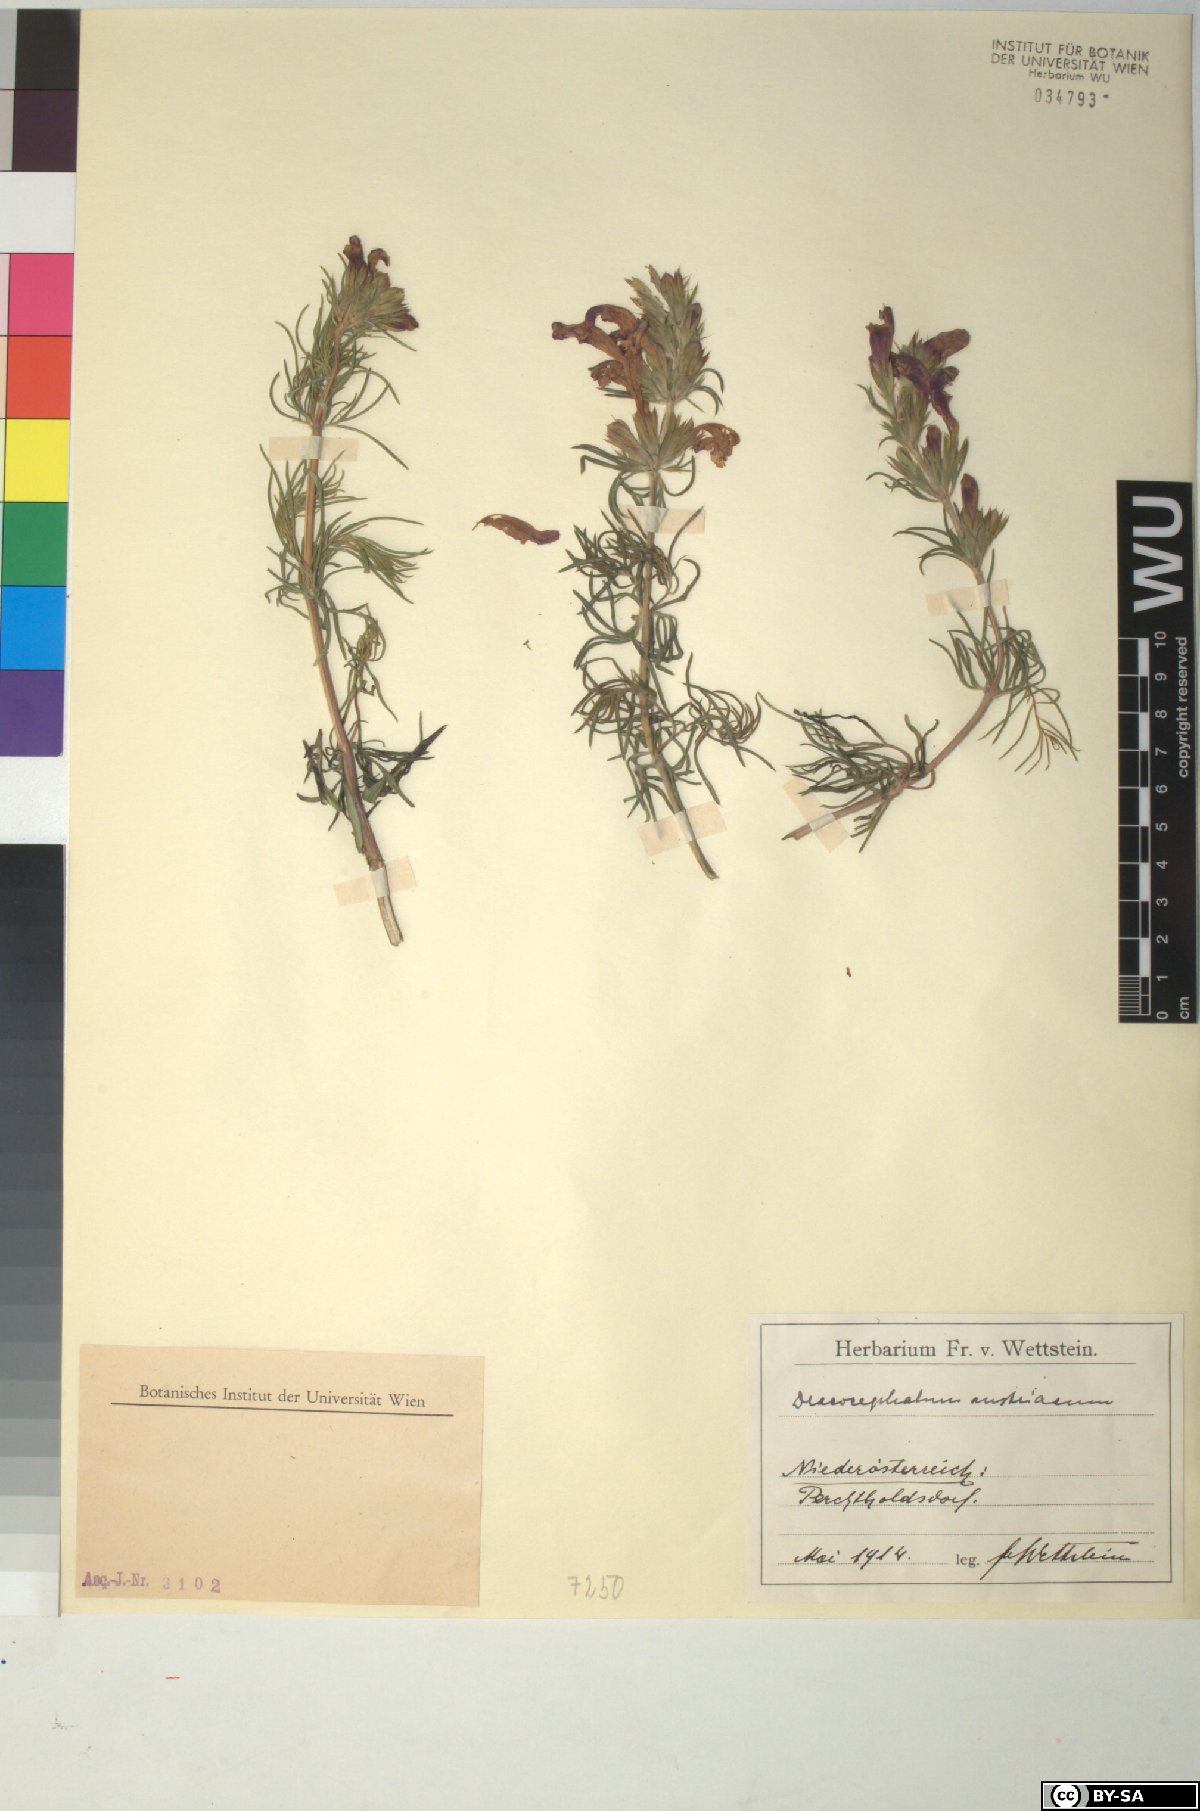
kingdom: Plantae
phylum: Tracheophyta
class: Magnoliopsida
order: Lamiales
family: Lamiaceae
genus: Dracocephalum
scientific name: Dracocephalum austriacum
